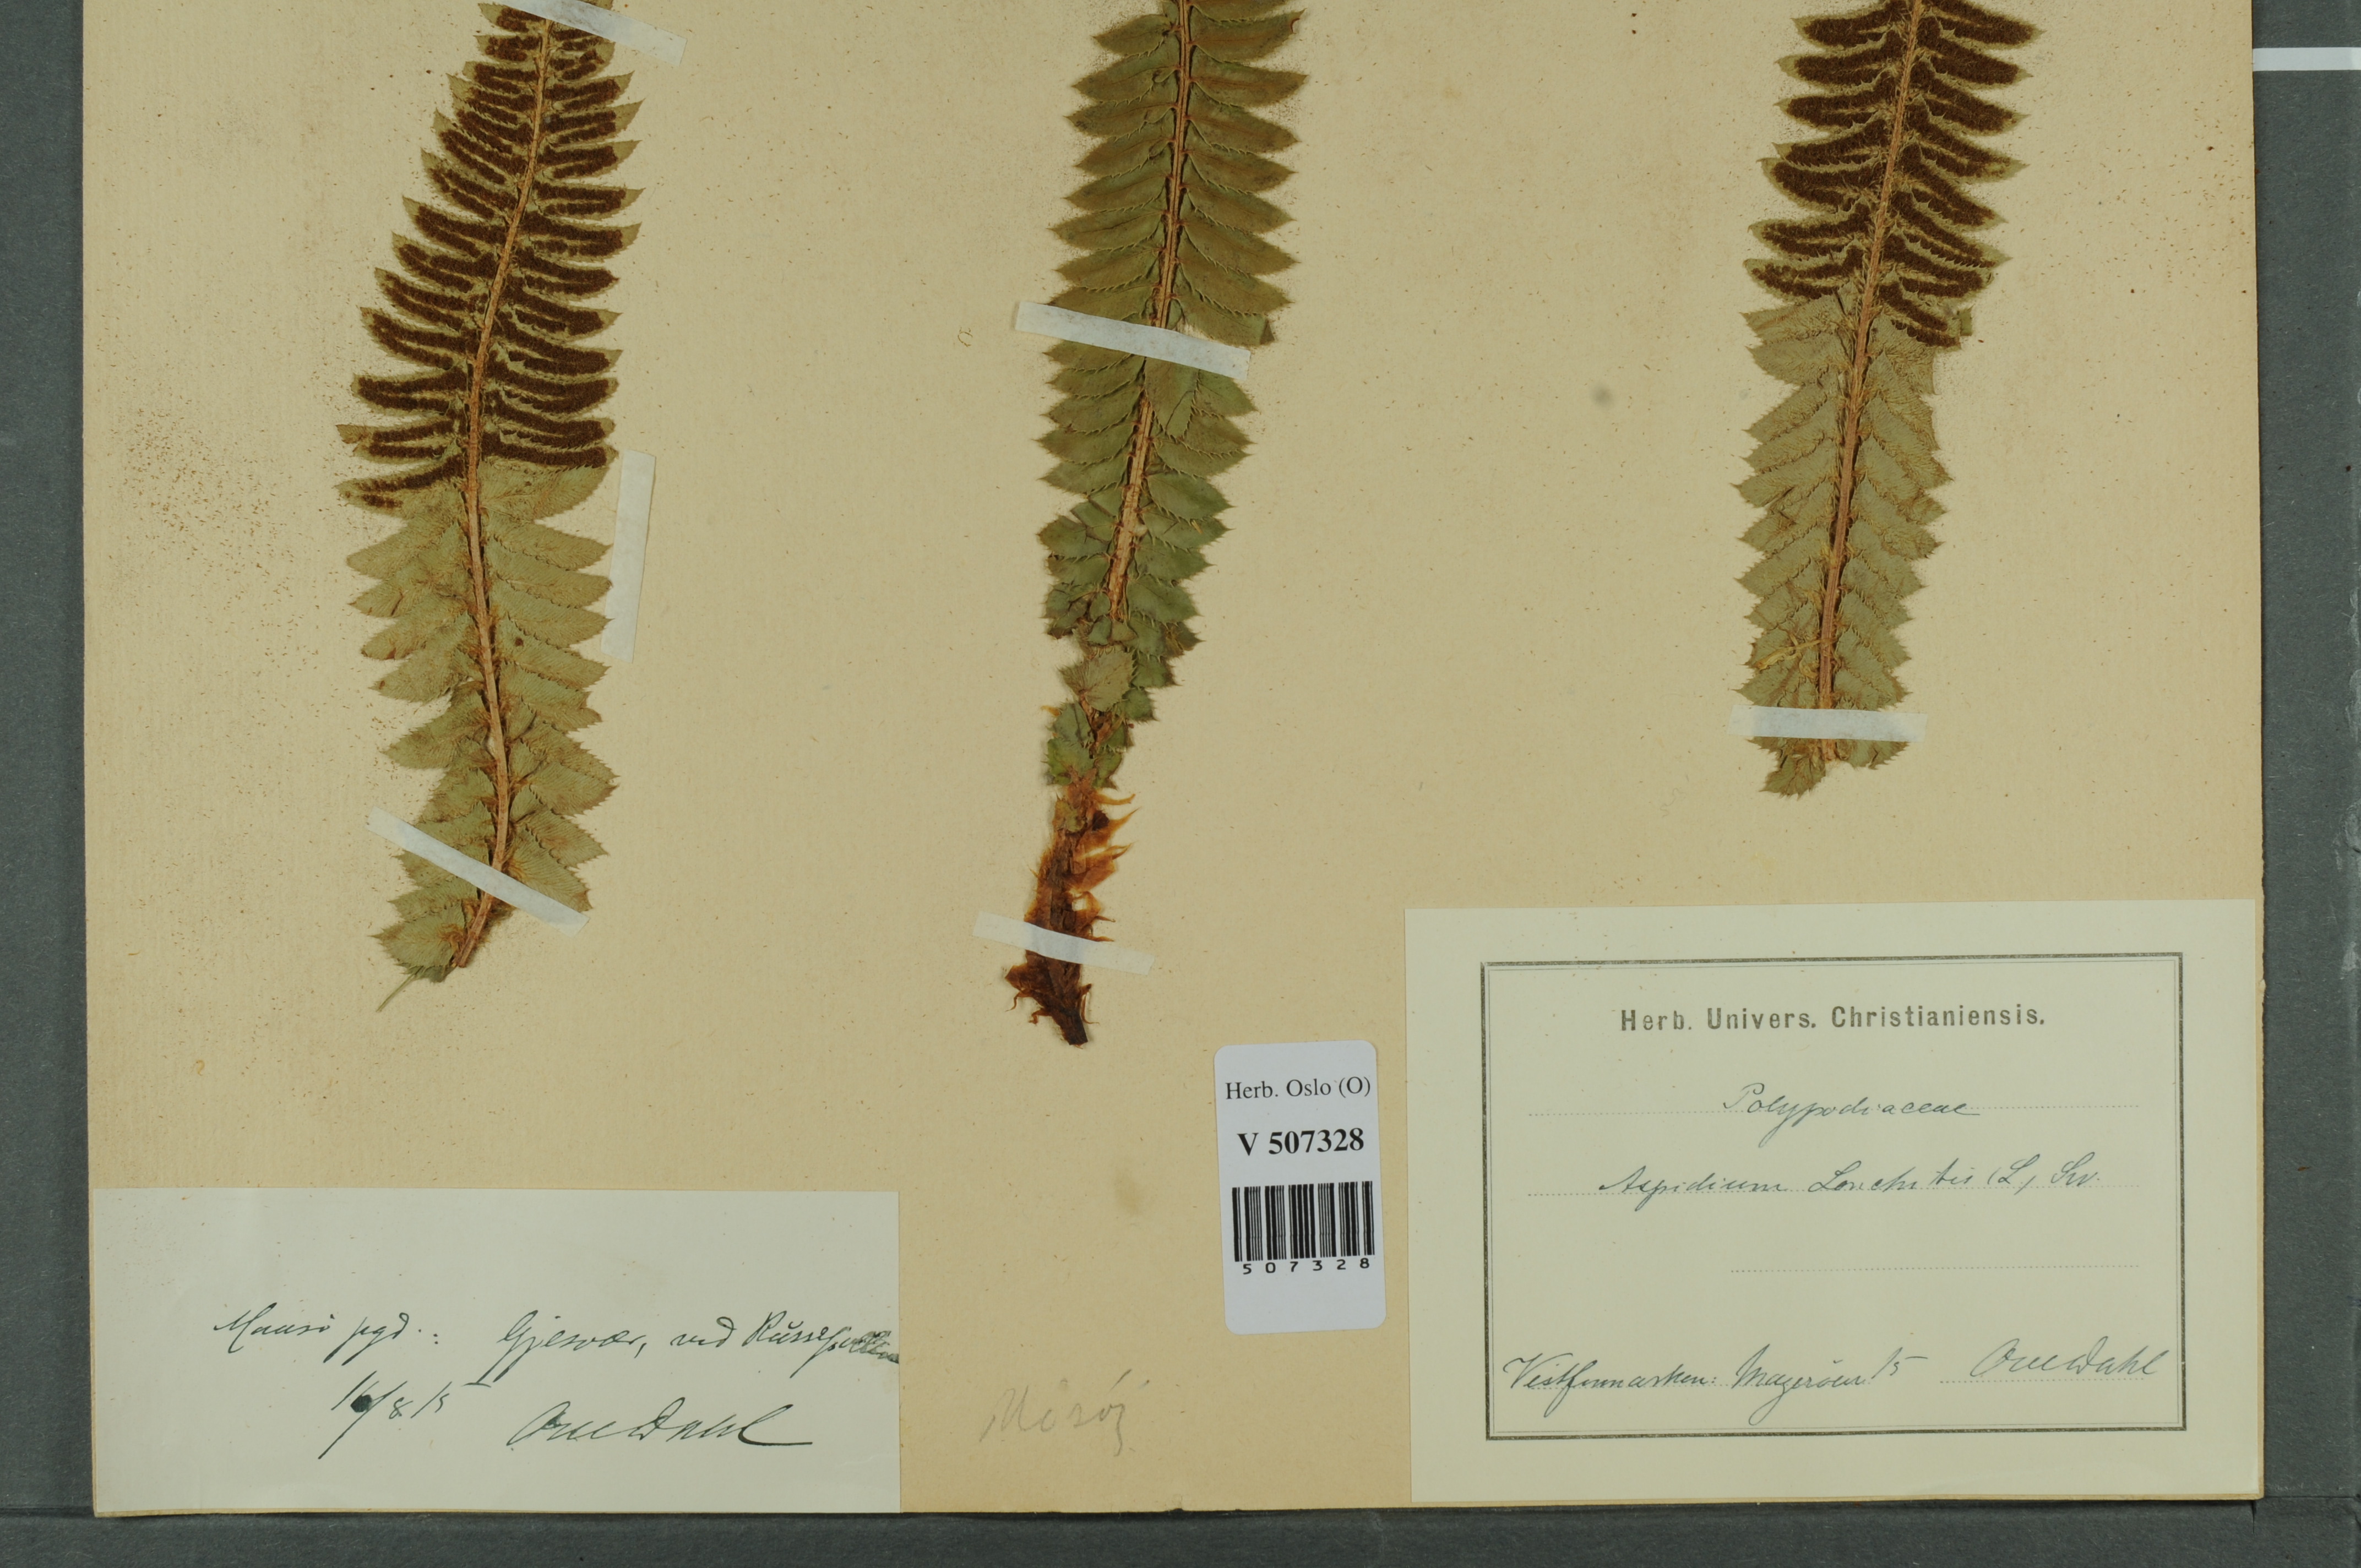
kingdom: Plantae
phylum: Tracheophyta
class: Polypodiopsida
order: Polypodiales
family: Dryopteridaceae
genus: Polystichum
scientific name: Polystichum lonchitis
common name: Holly fern
